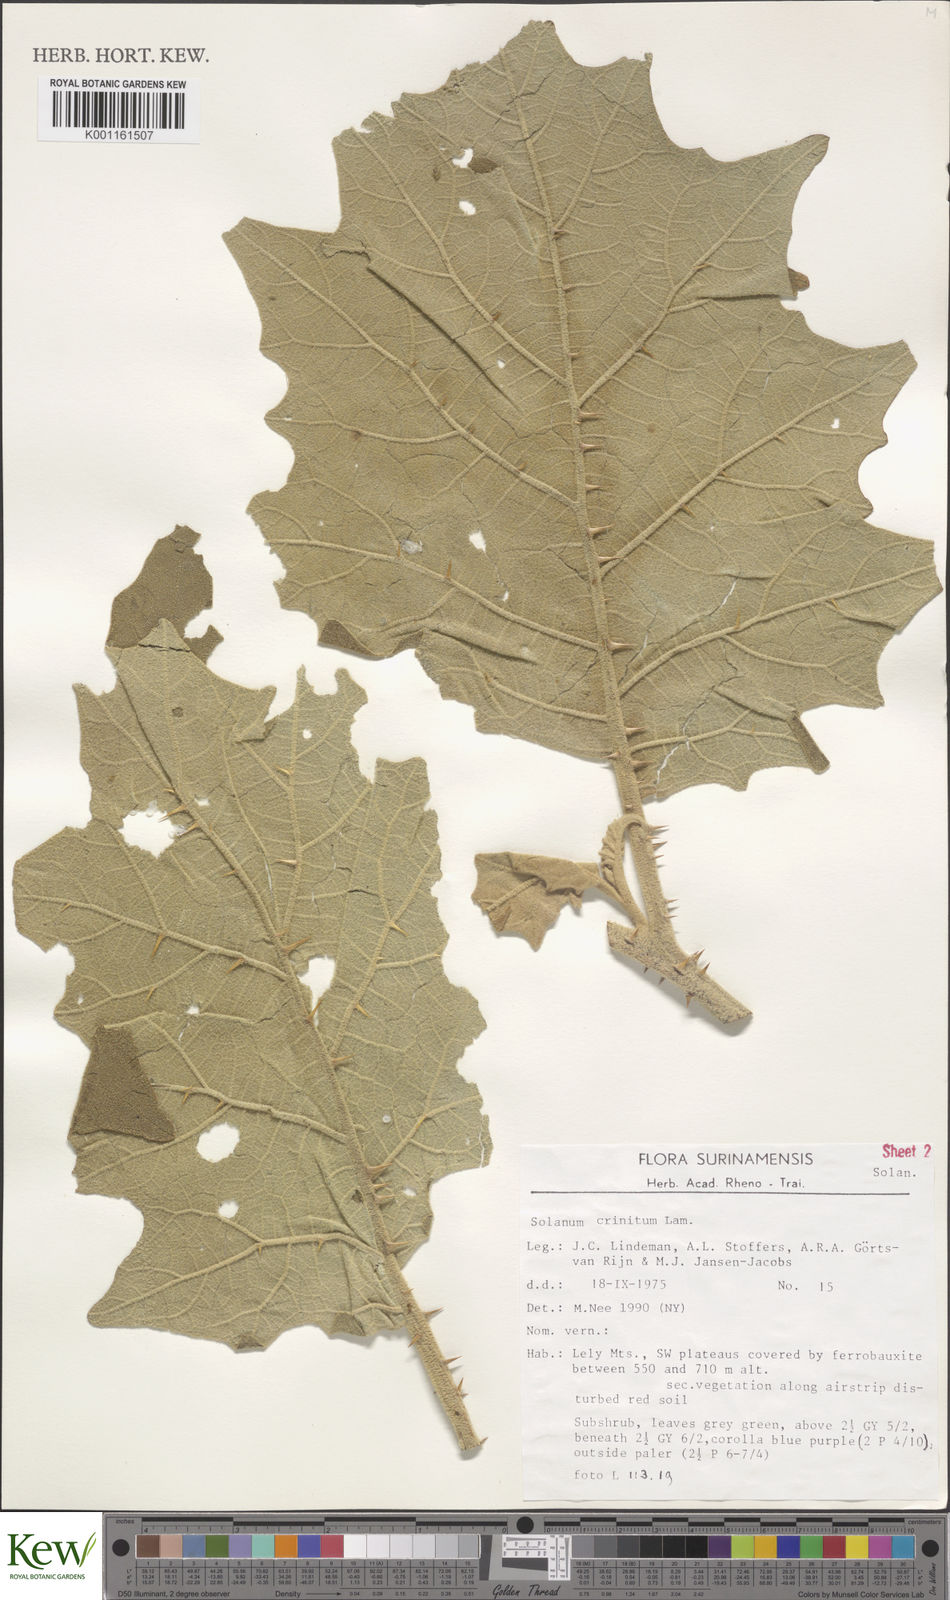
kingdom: Plantae
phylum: Tracheophyta
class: Magnoliopsida
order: Solanales
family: Solanaceae
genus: Solanum
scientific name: Solanum crinitum
